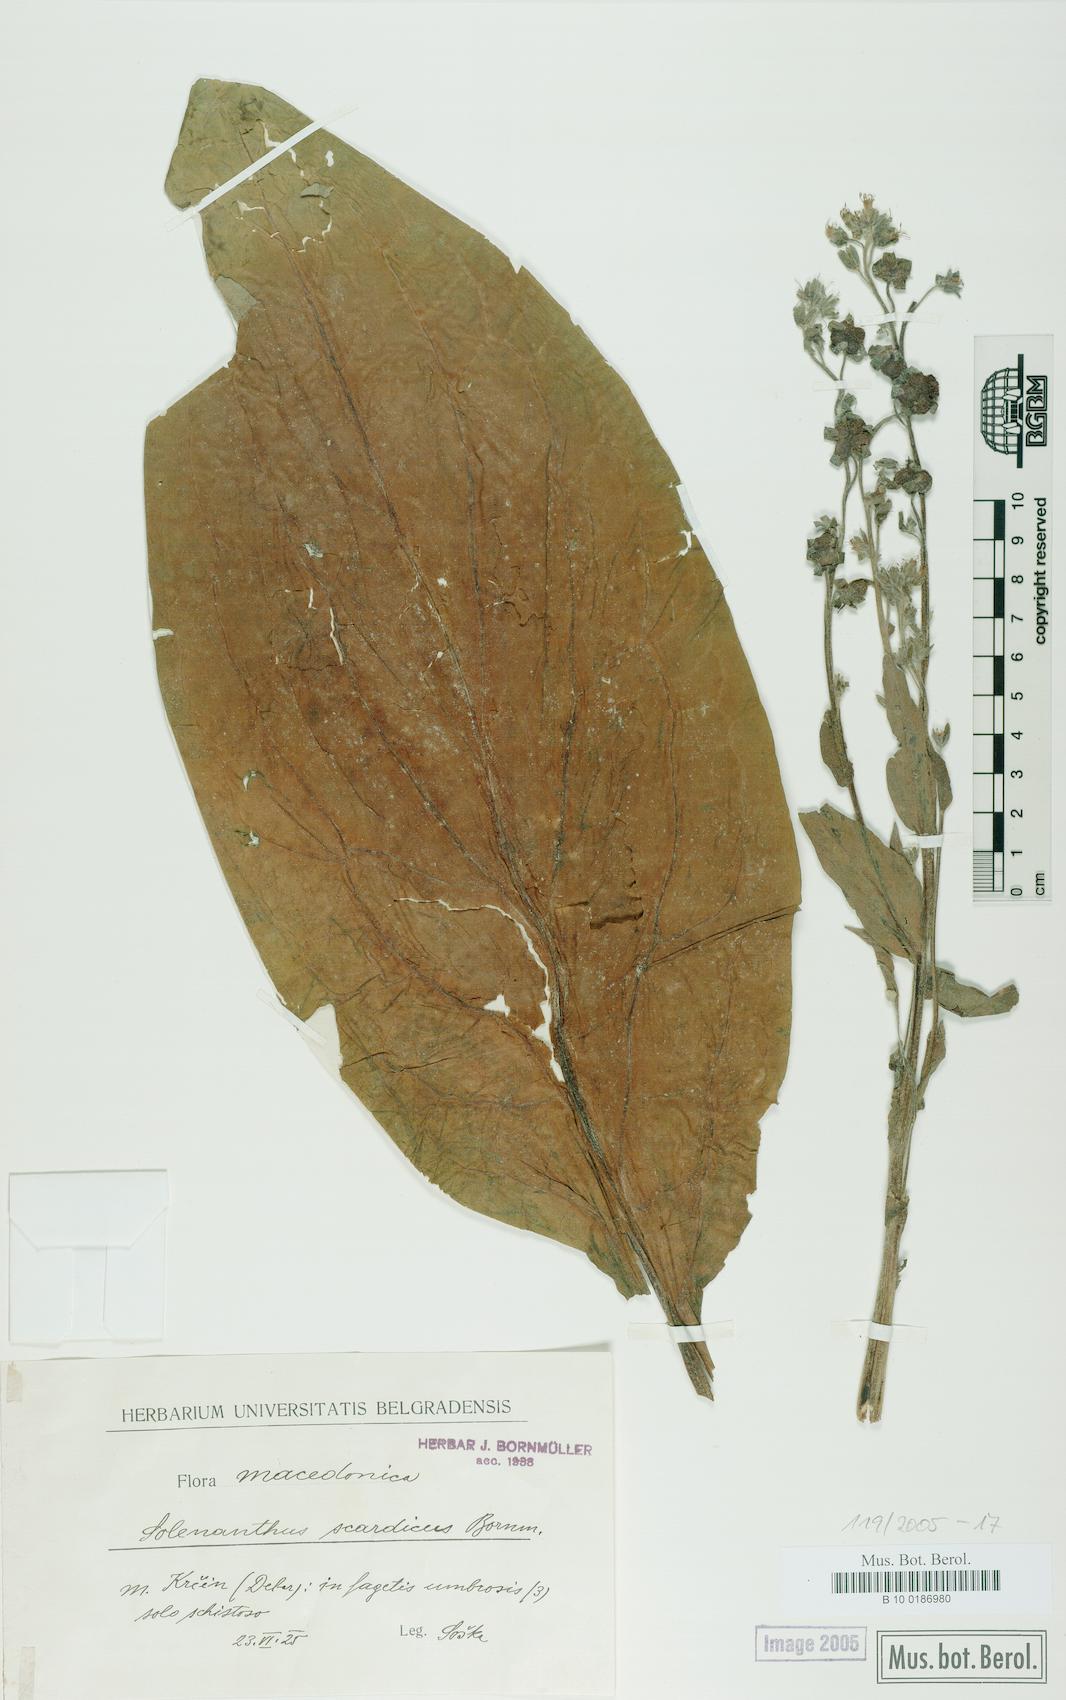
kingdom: Plantae
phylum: Tracheophyta
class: Magnoliopsida
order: Boraginales
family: Boraginaceae
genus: Solenanthus
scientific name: Solenanthus scardicus
